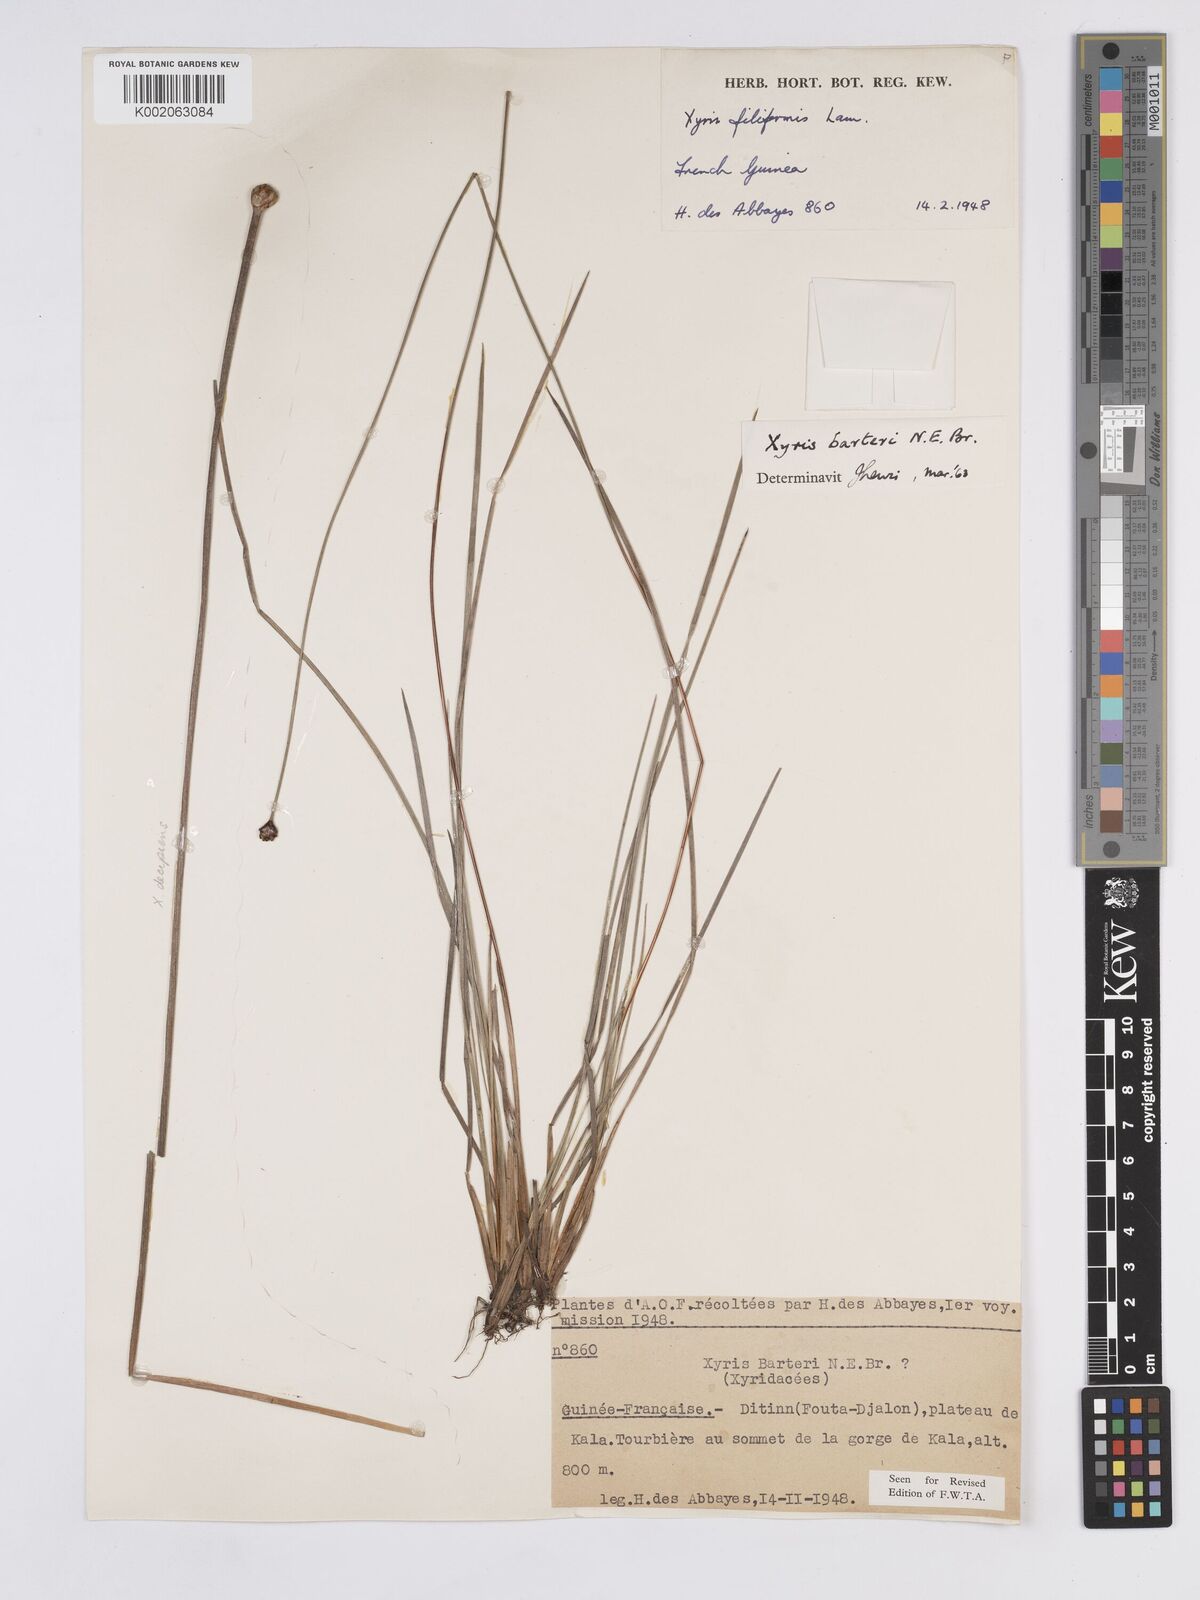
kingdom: Plantae
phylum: Tracheophyta
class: Liliopsida
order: Poales
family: Xyridaceae
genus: Xyris
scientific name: Xyris barteri
